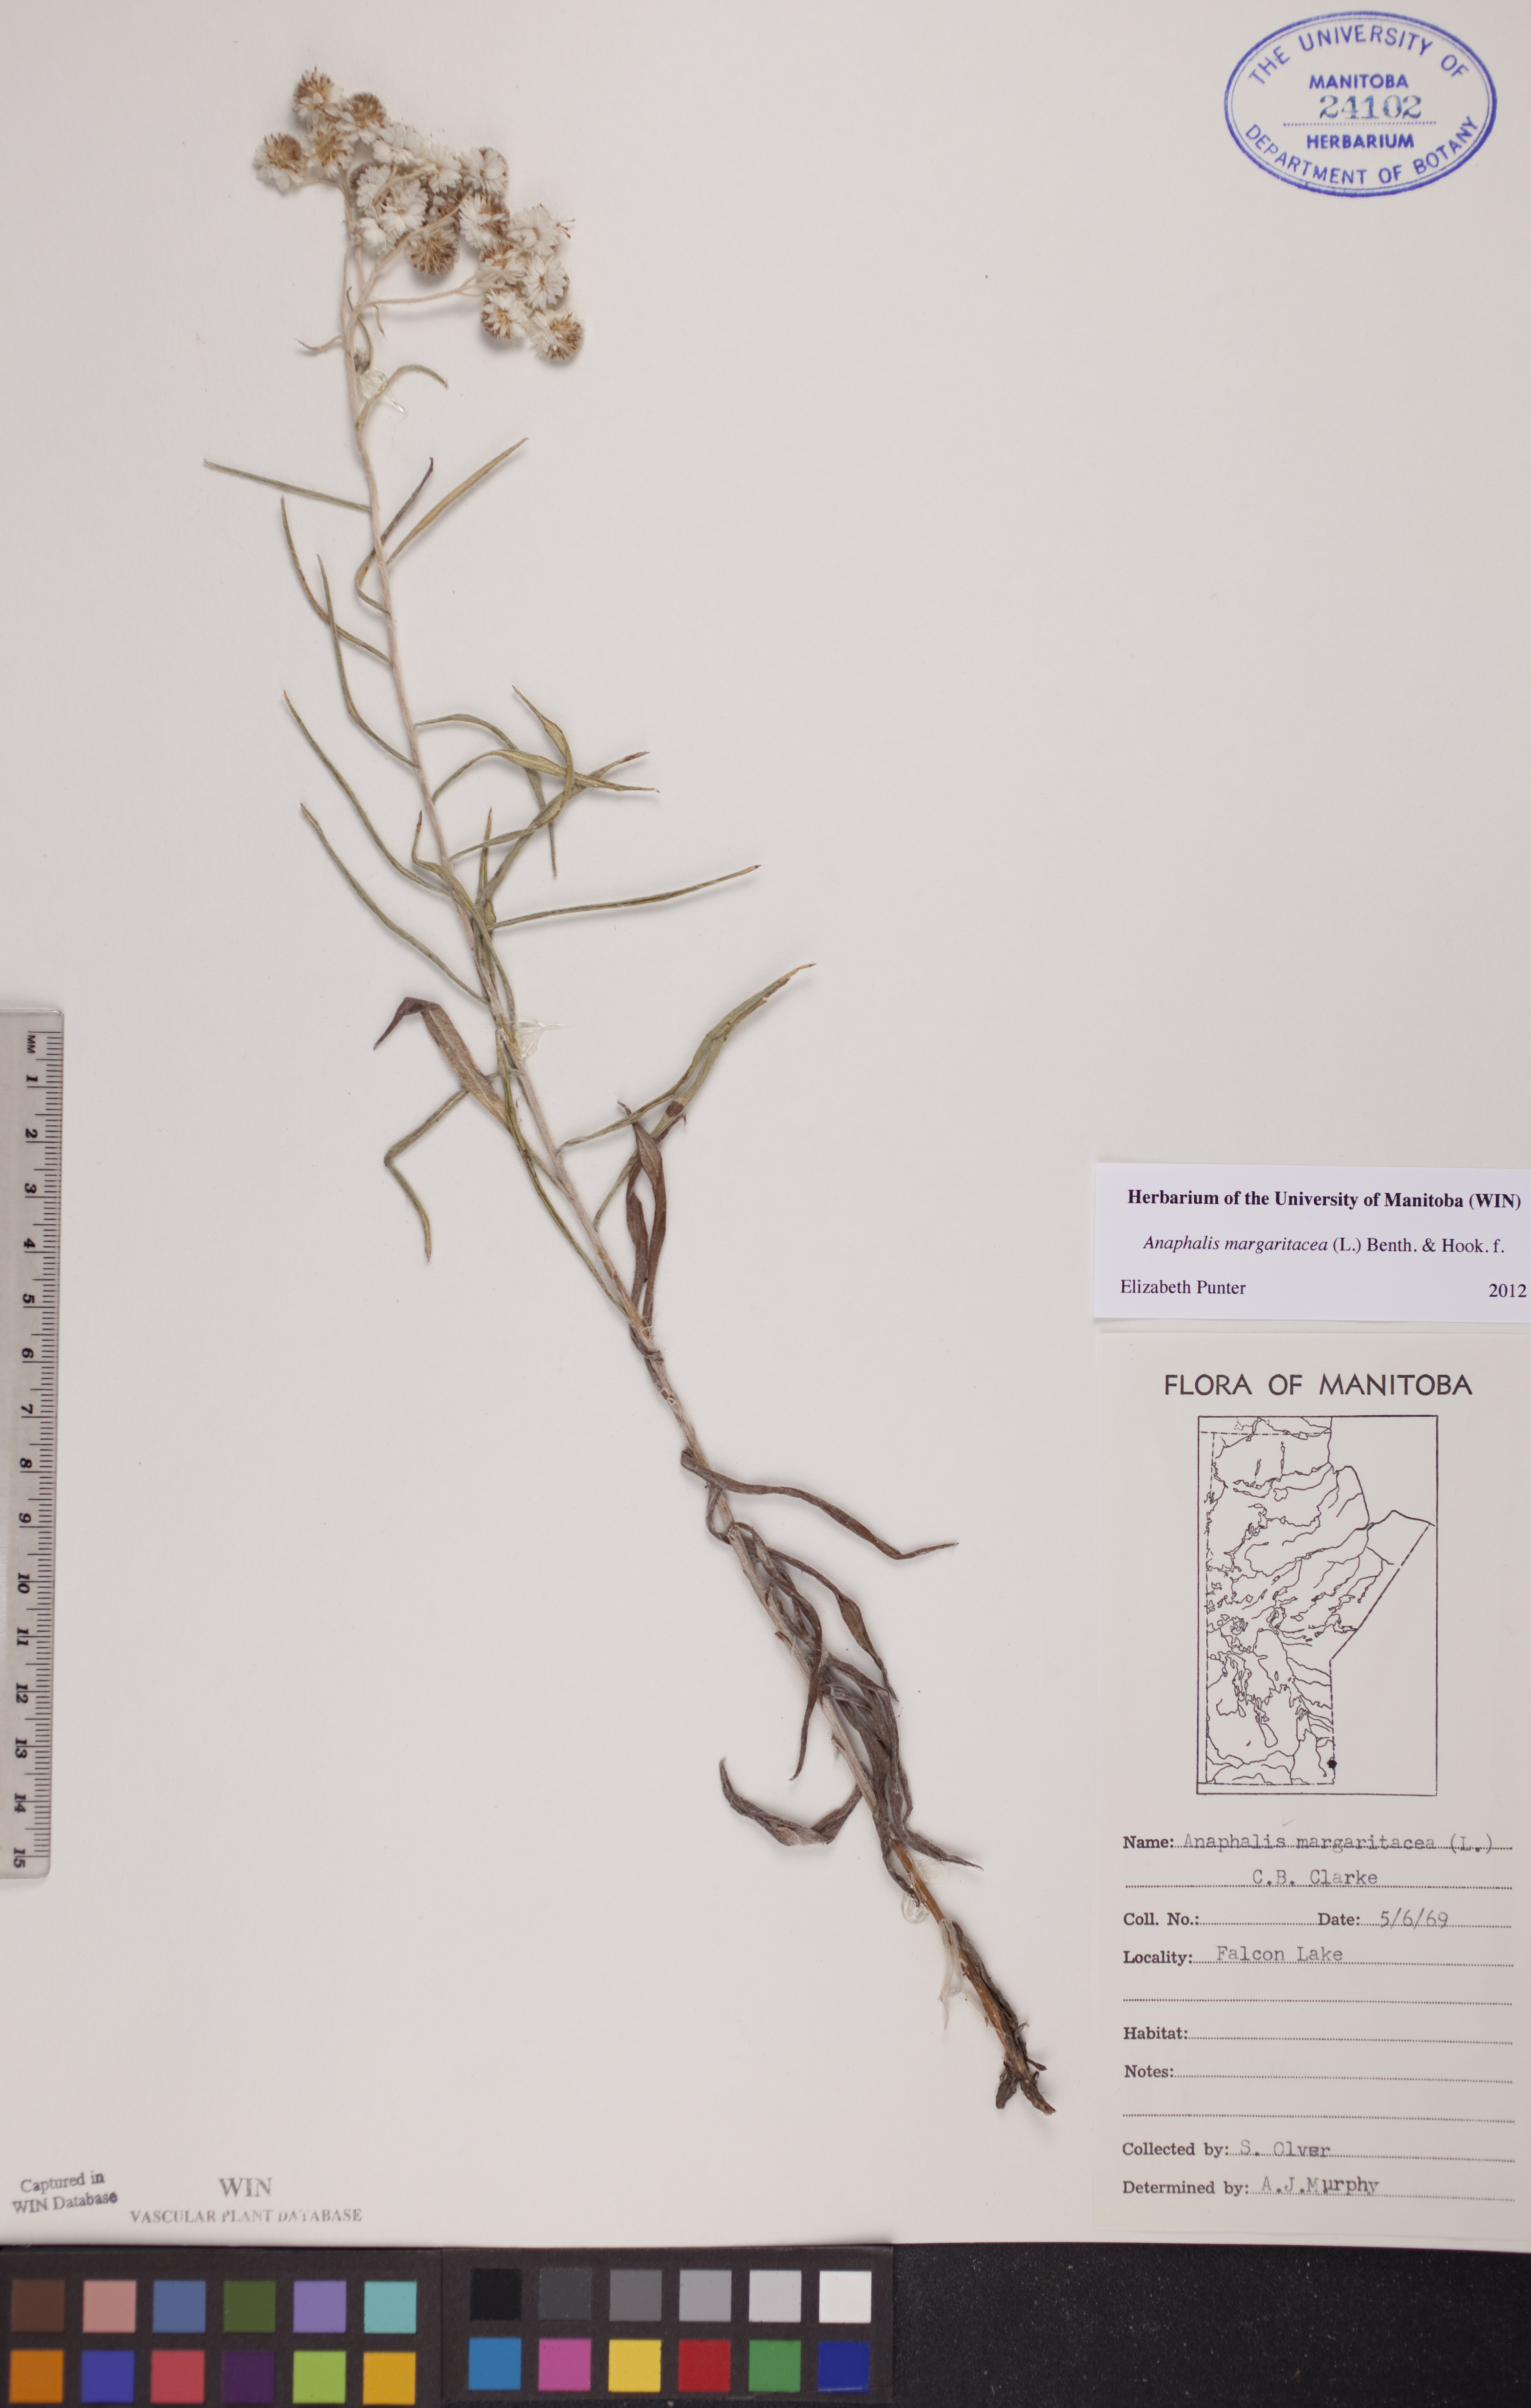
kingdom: Plantae
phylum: Tracheophyta
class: Magnoliopsida
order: Asterales
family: Asteraceae
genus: Anaphalis
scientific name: Anaphalis margaritacea
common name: Pearly everlasting
